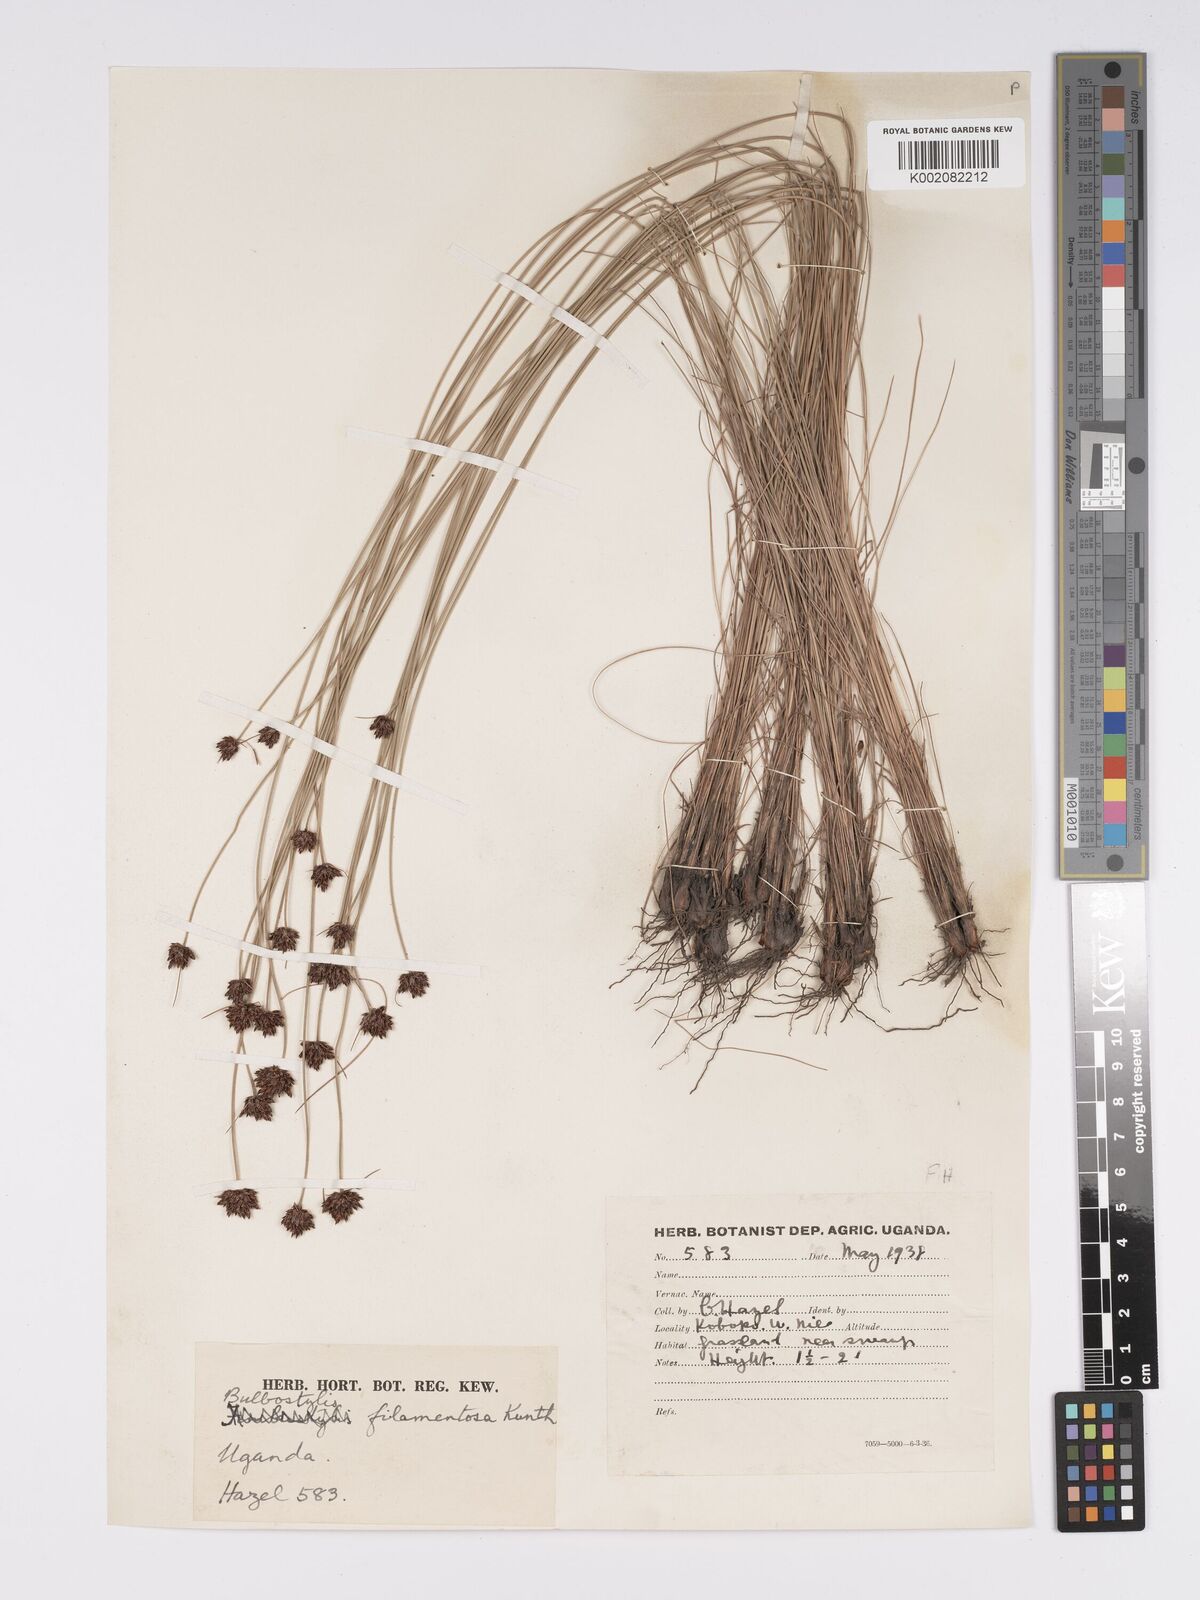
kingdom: Plantae
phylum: Tracheophyta
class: Liliopsida
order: Poales
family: Cyperaceae
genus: Bulbostylis
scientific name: Bulbostylis scabricaulis
